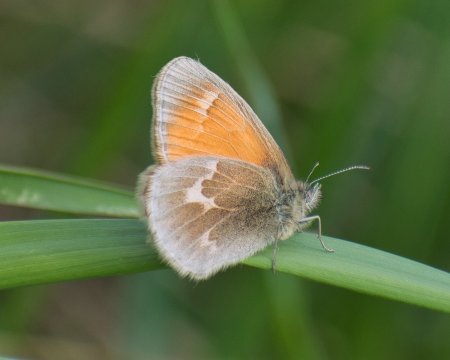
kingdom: Animalia
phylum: Arthropoda
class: Insecta
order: Lepidoptera
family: Nymphalidae
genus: Coenonympha
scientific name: Coenonympha tullia
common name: Large Heath
